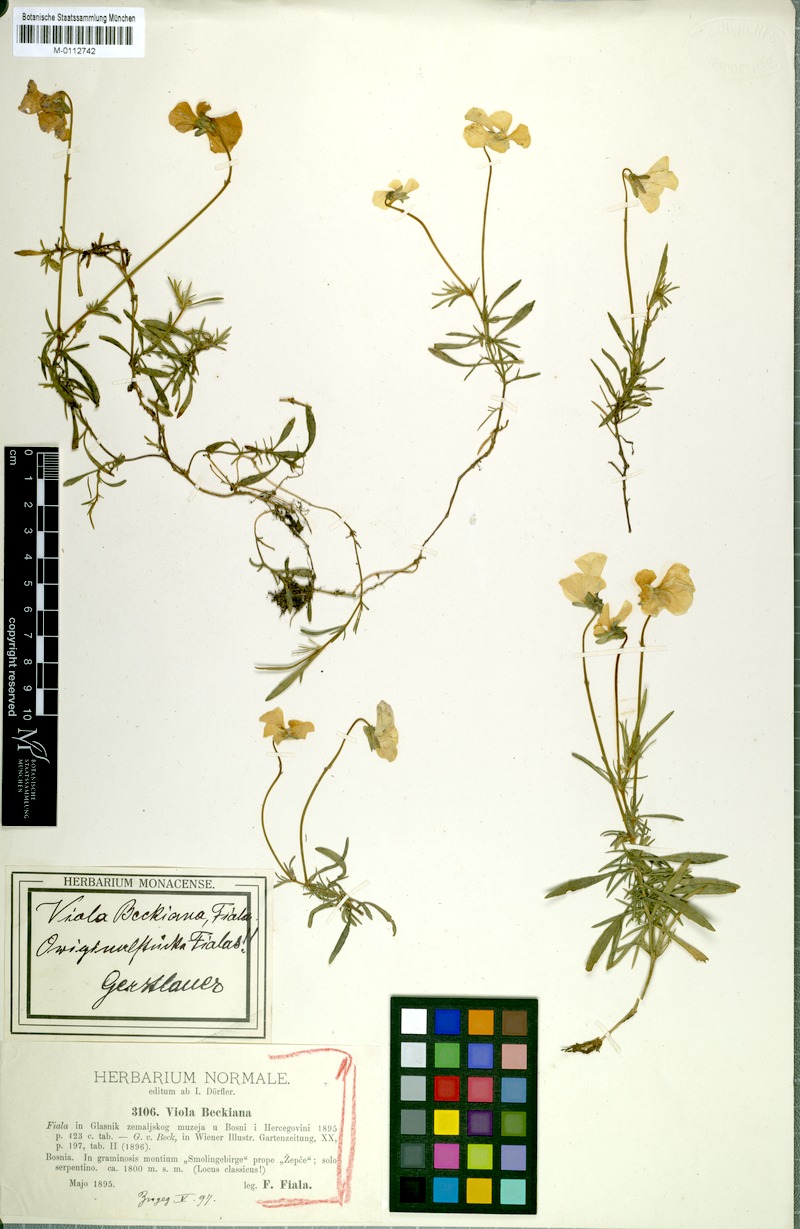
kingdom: Plantae
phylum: Tracheophyta
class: Magnoliopsida
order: Malpighiales
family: Violaceae
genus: Viola
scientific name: Viola beckiana
